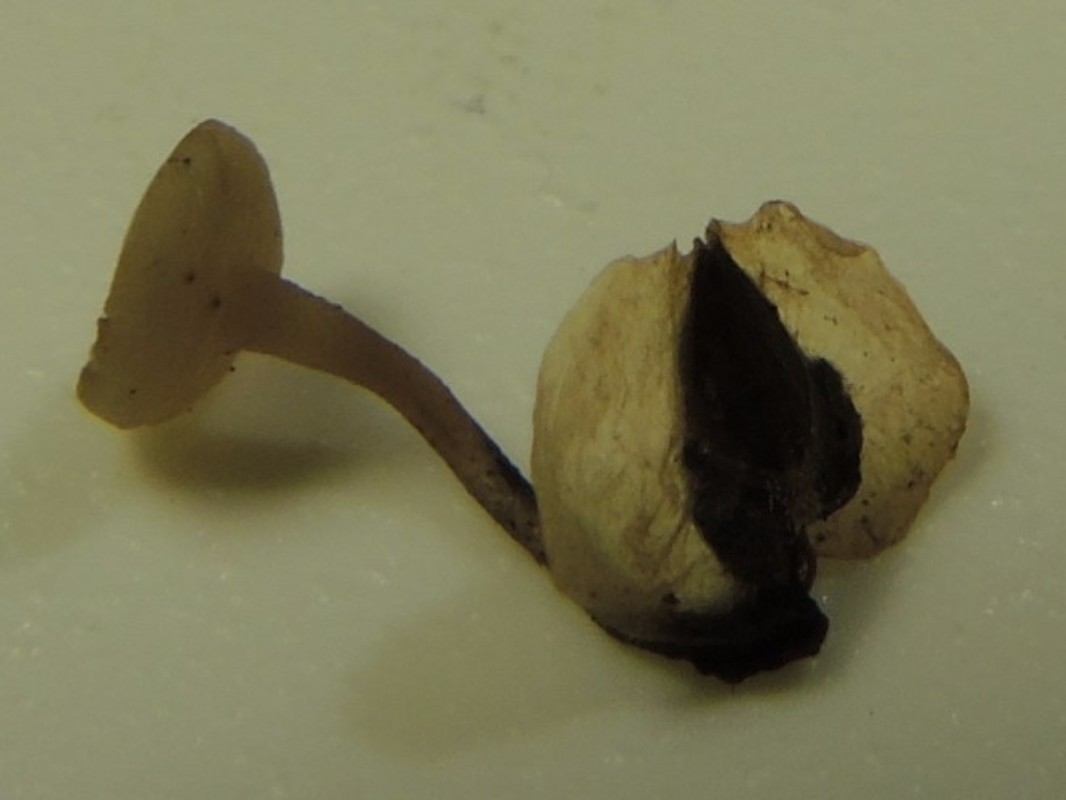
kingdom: Fungi
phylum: Ascomycota
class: Leotiomycetes
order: Helotiales
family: Sclerotiniaceae
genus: Ciboria
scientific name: Ciboria betulae
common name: birkefrø-knoldskive
